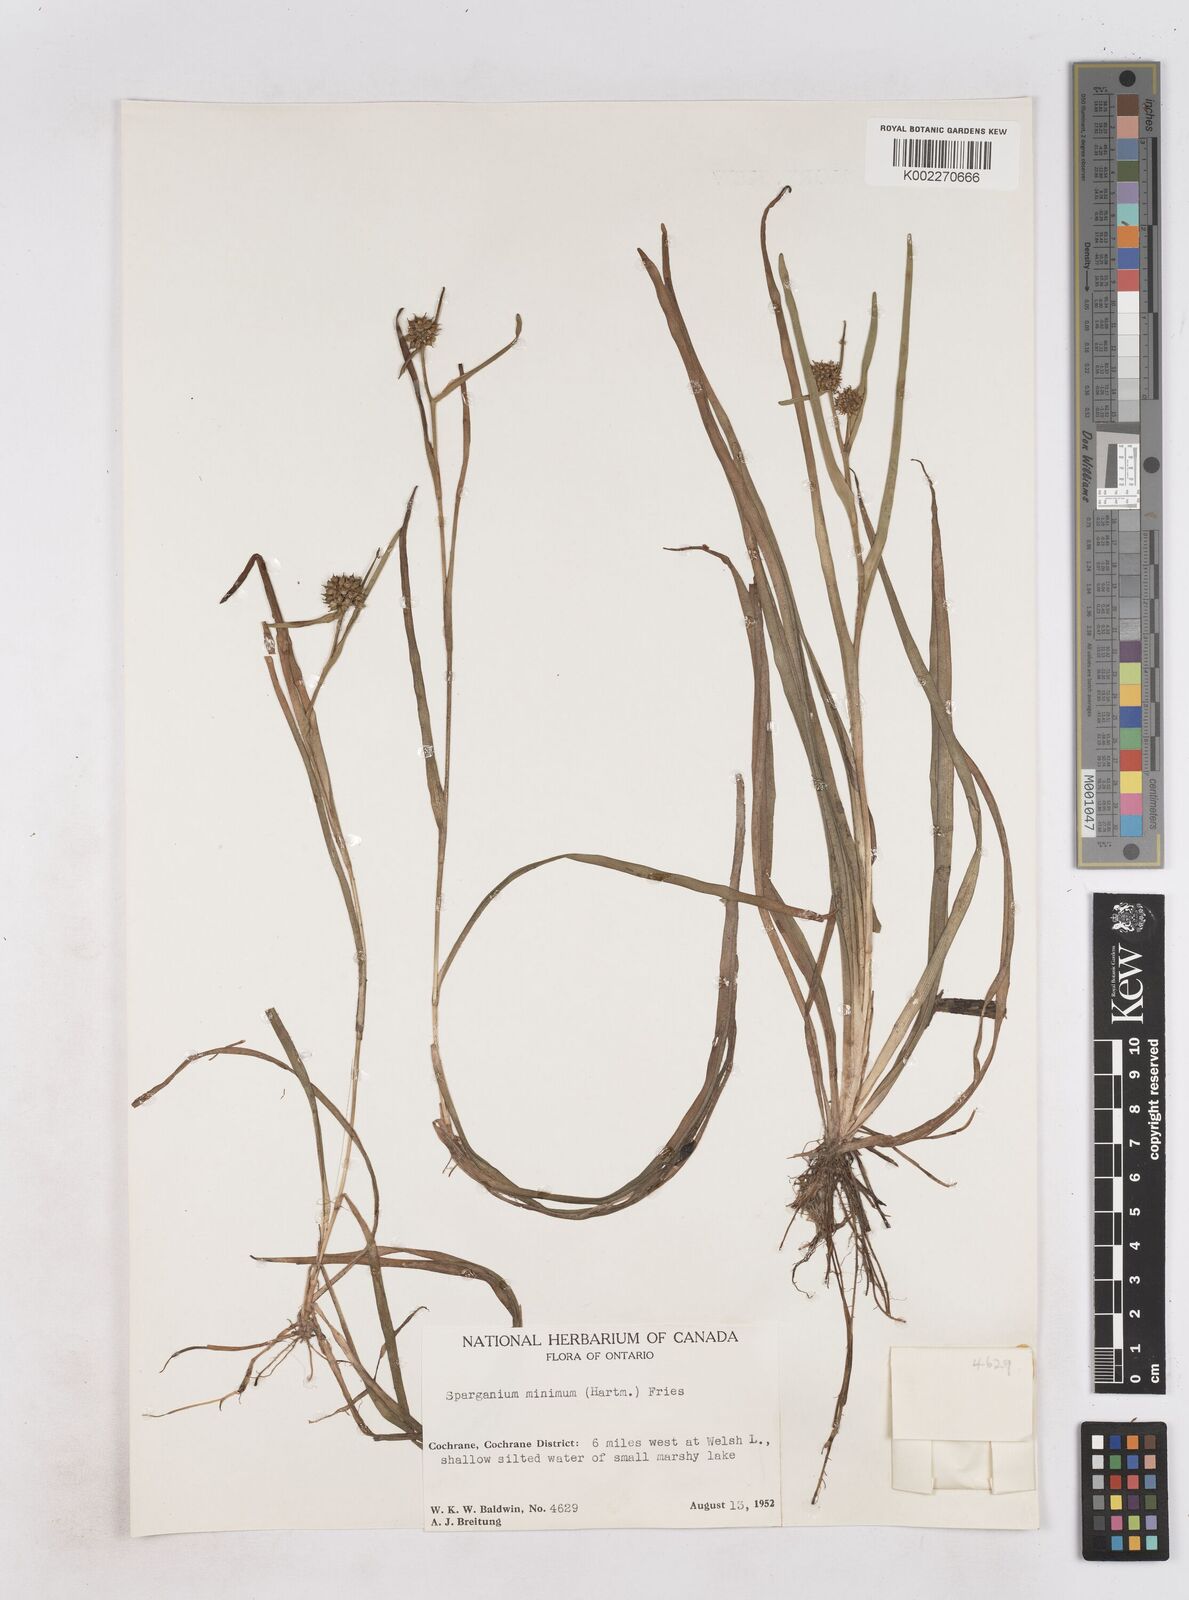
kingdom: Plantae
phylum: Tracheophyta
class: Liliopsida
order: Poales
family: Typhaceae
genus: Sparganium
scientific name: Sparganium natans
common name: Least bur-reed
